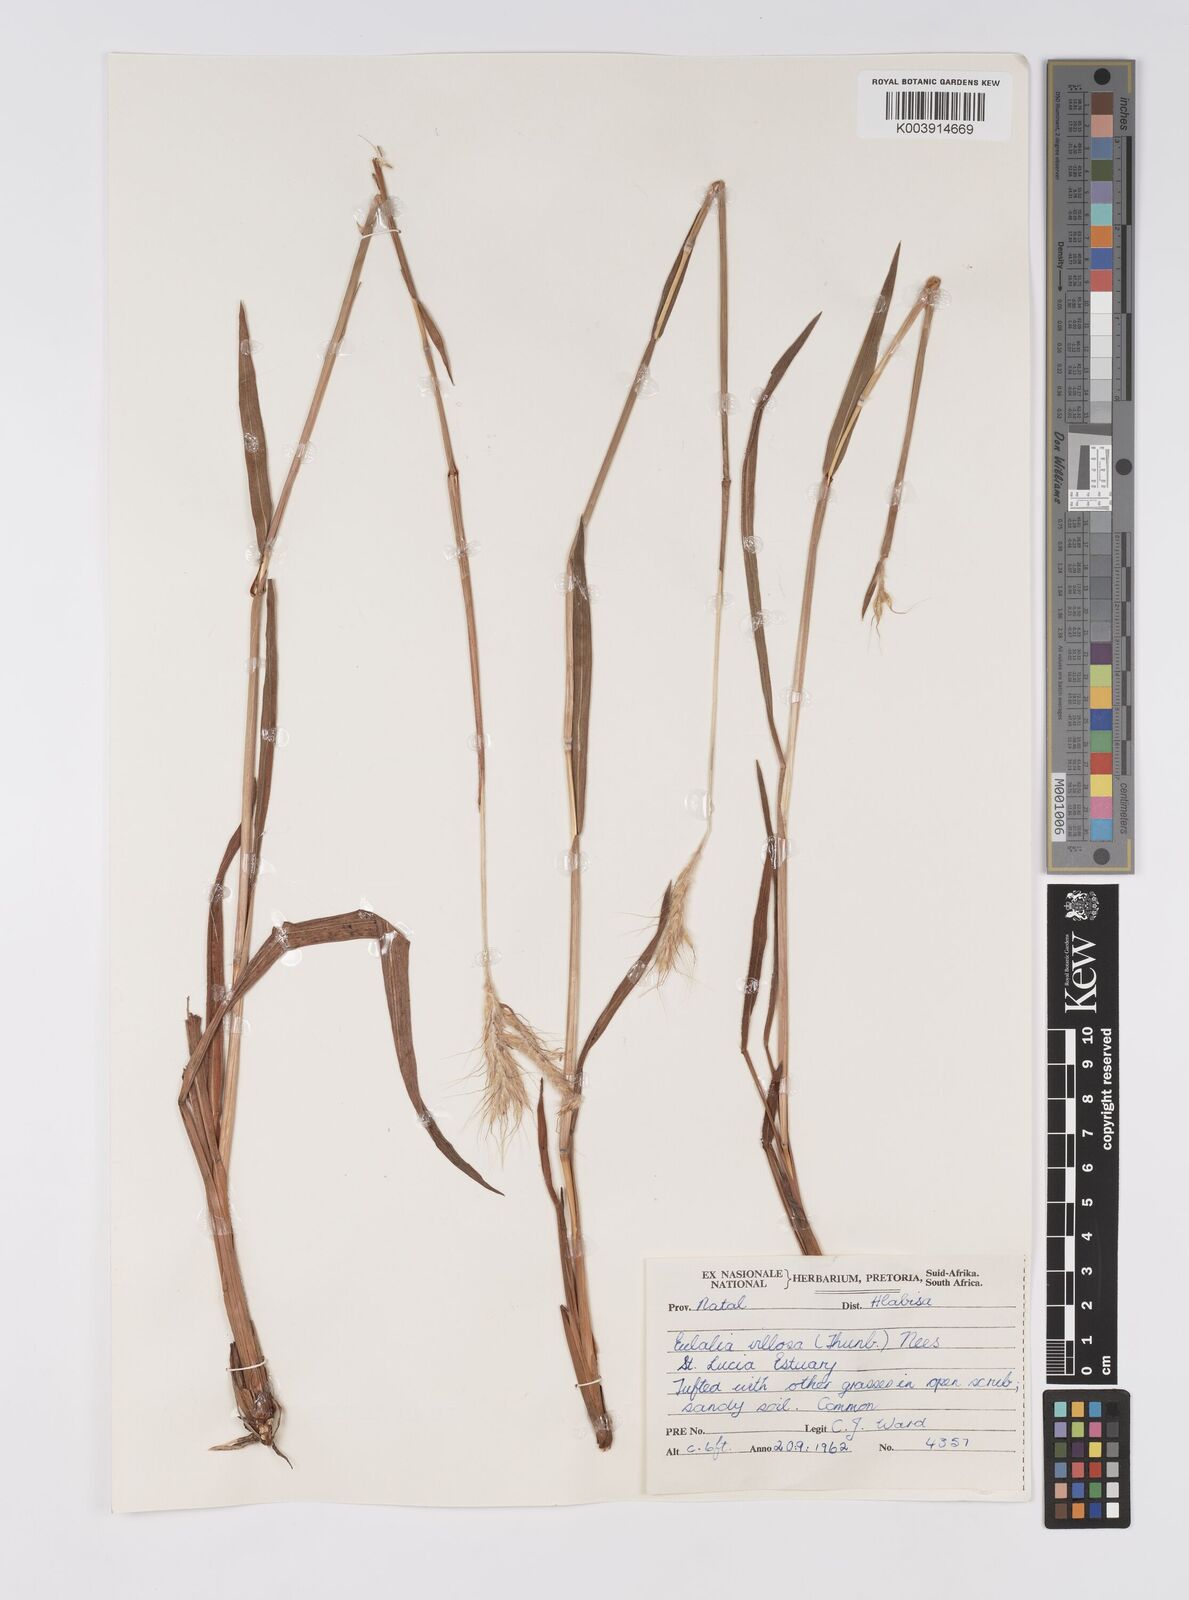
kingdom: Plantae
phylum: Tracheophyta
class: Liliopsida
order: Poales
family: Poaceae
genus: Eulalia
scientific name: Eulalia villosa
